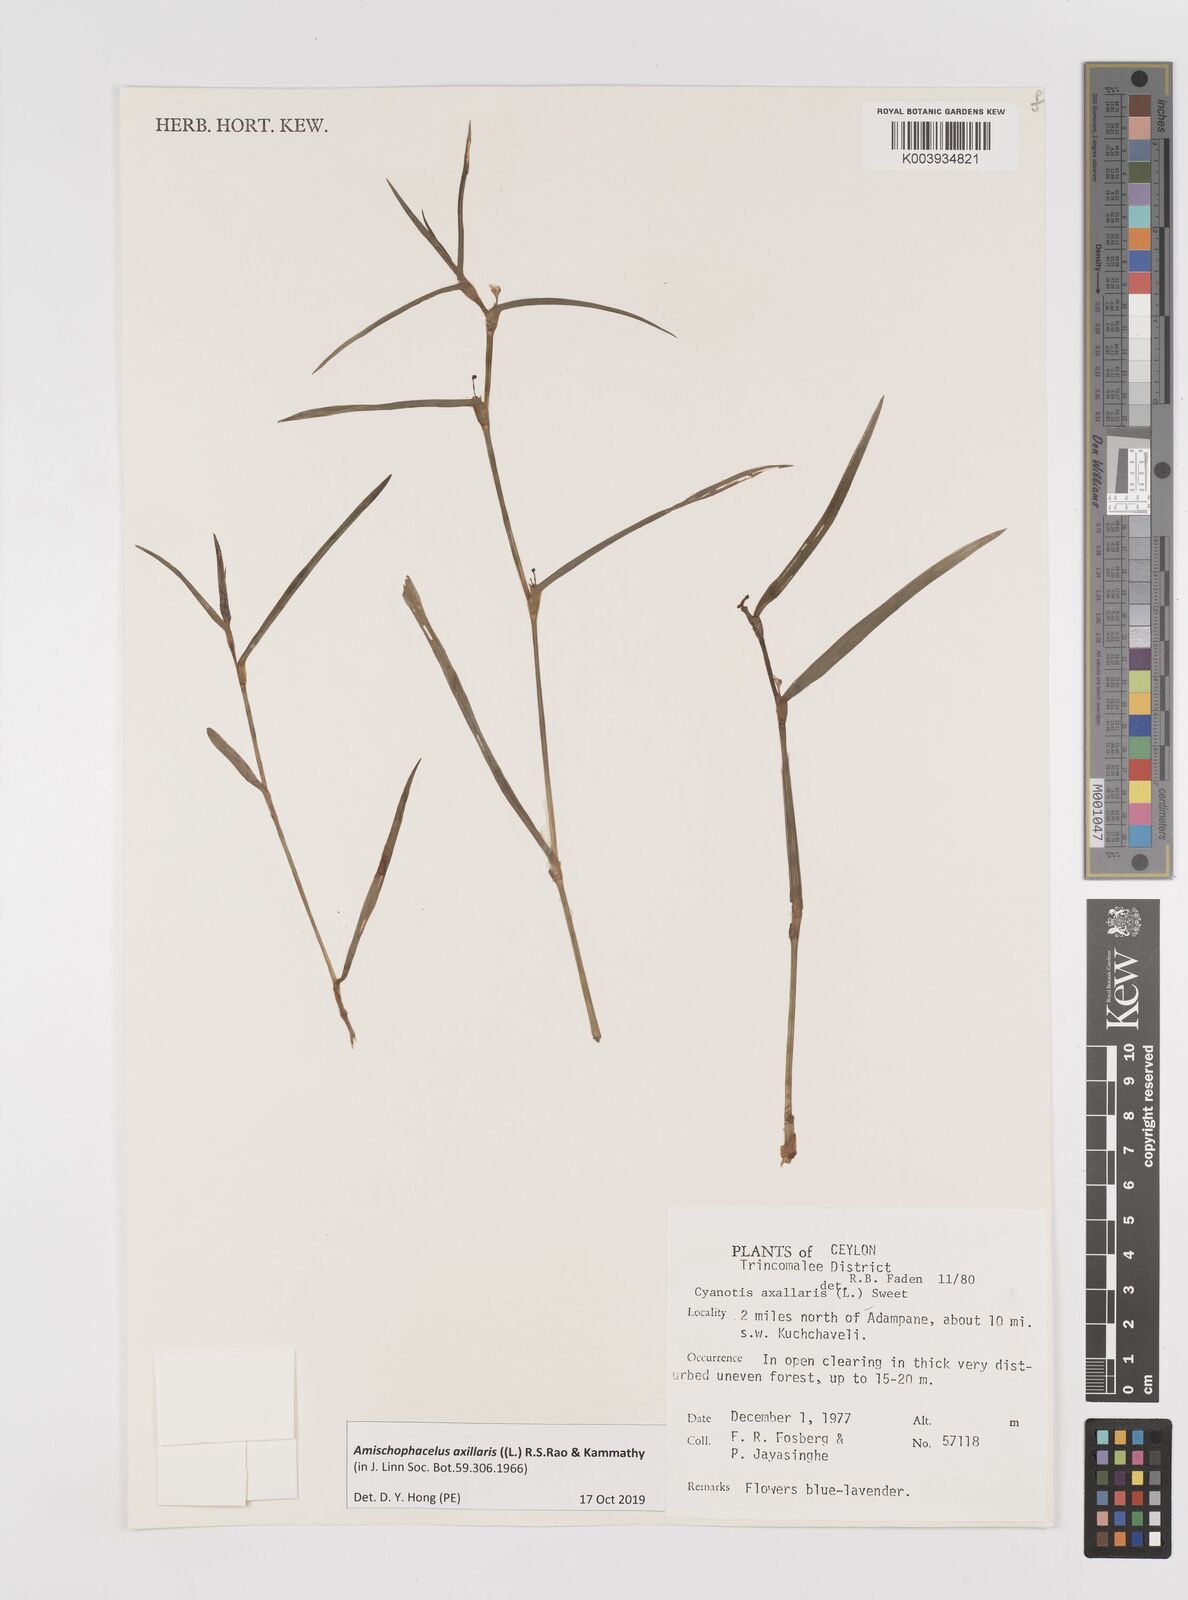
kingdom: Plantae
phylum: Tracheophyta
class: Liliopsida
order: Commelinales
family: Commelinaceae
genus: Cyanotis
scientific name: Cyanotis axillaris
